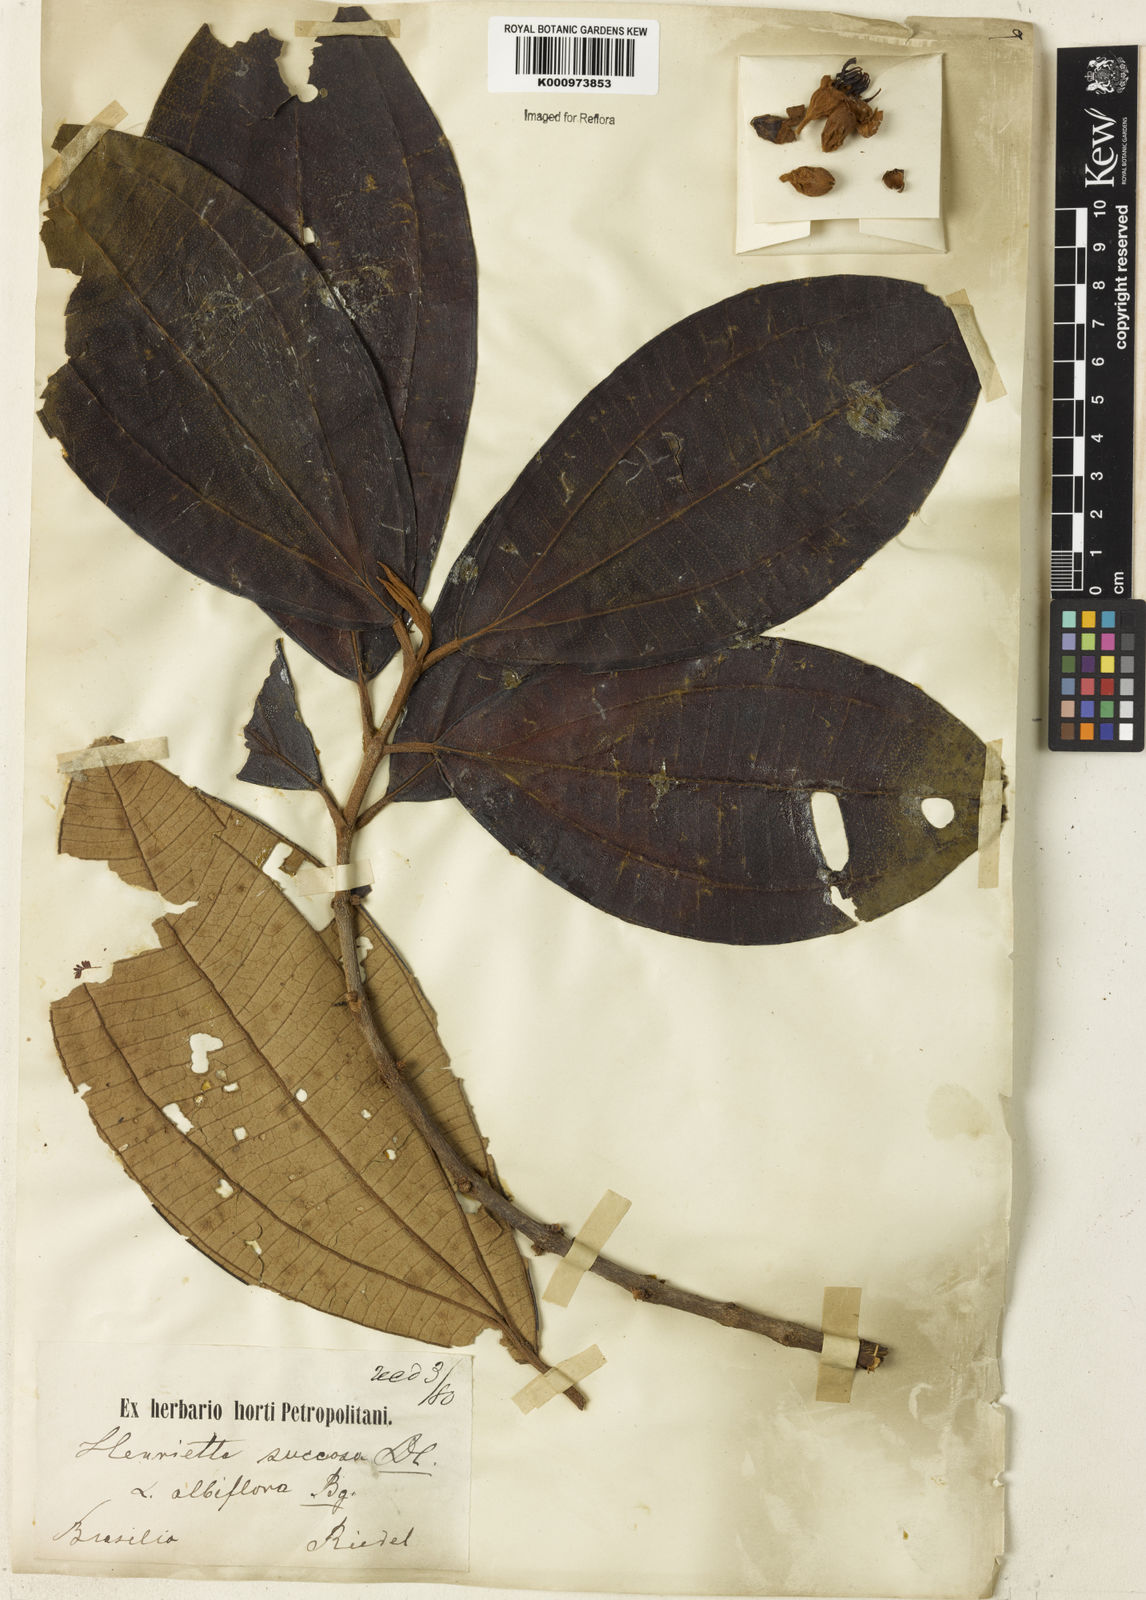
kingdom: Plantae
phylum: Tracheophyta
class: Magnoliopsida
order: Myrtales
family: Melastomataceae
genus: Henriettea
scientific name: Henriettea succosa
